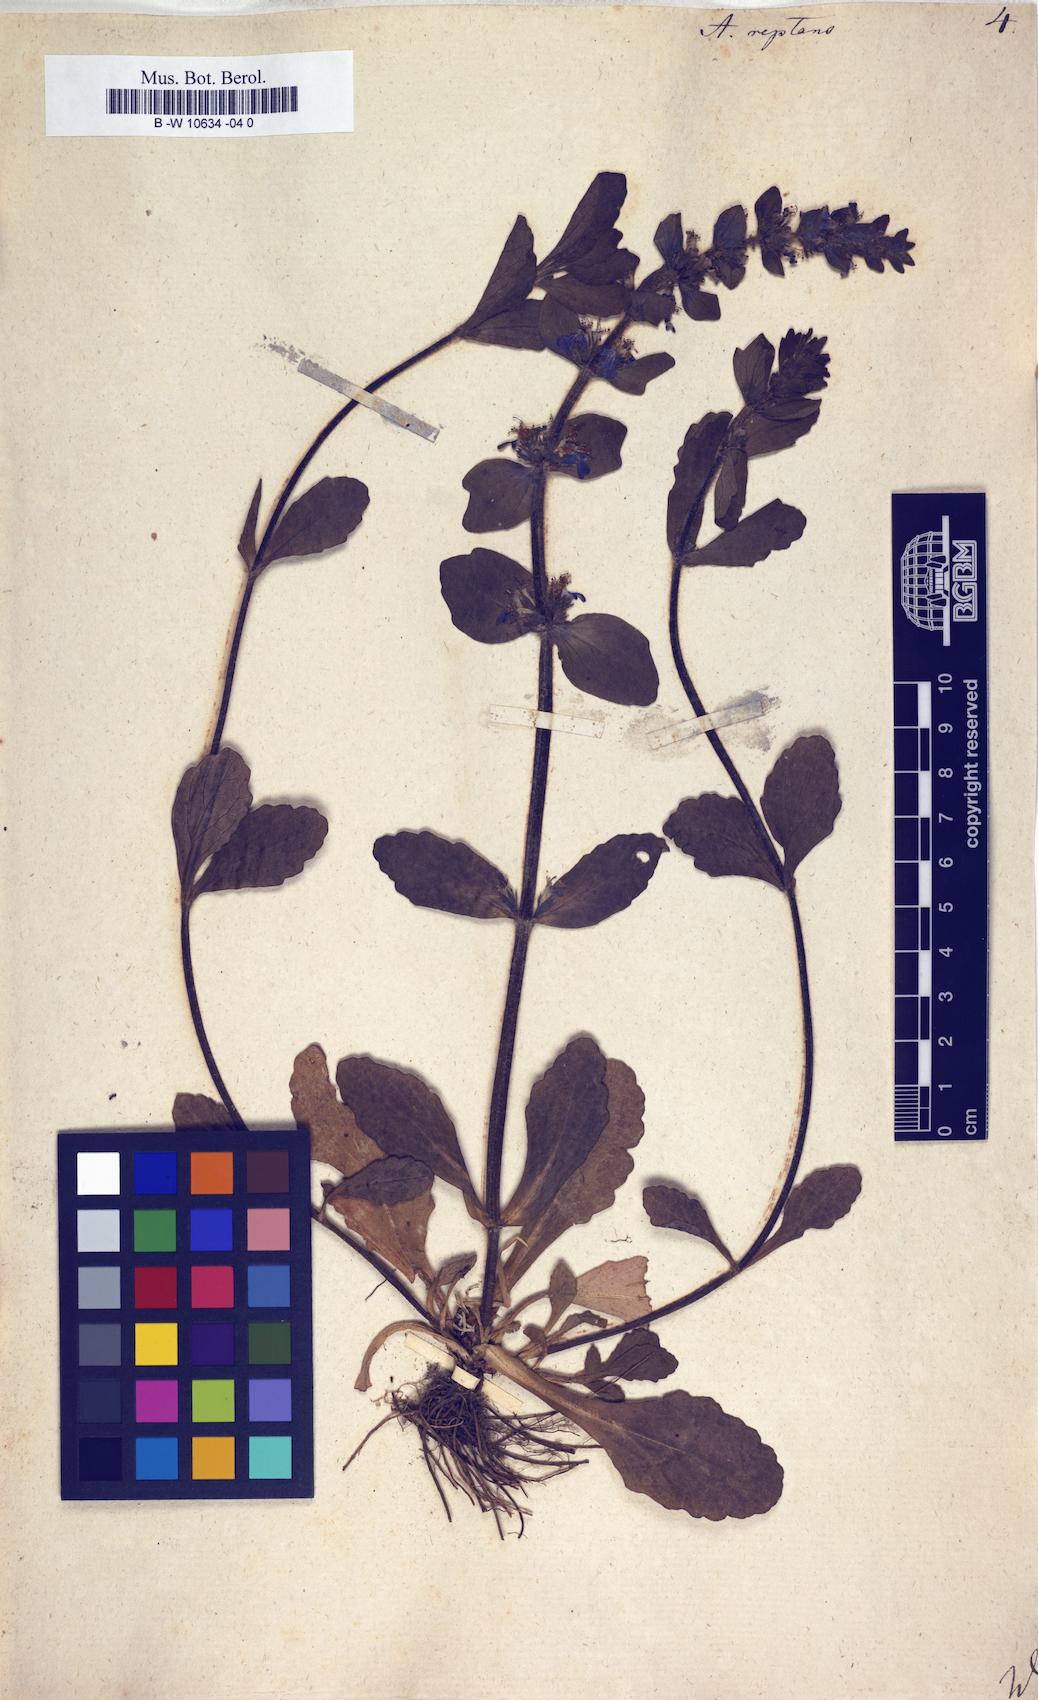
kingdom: Plantae
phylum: Tracheophyta
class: Magnoliopsida
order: Lamiales
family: Lamiaceae
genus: Ajuga
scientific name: Ajuga reptans
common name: Bugle
